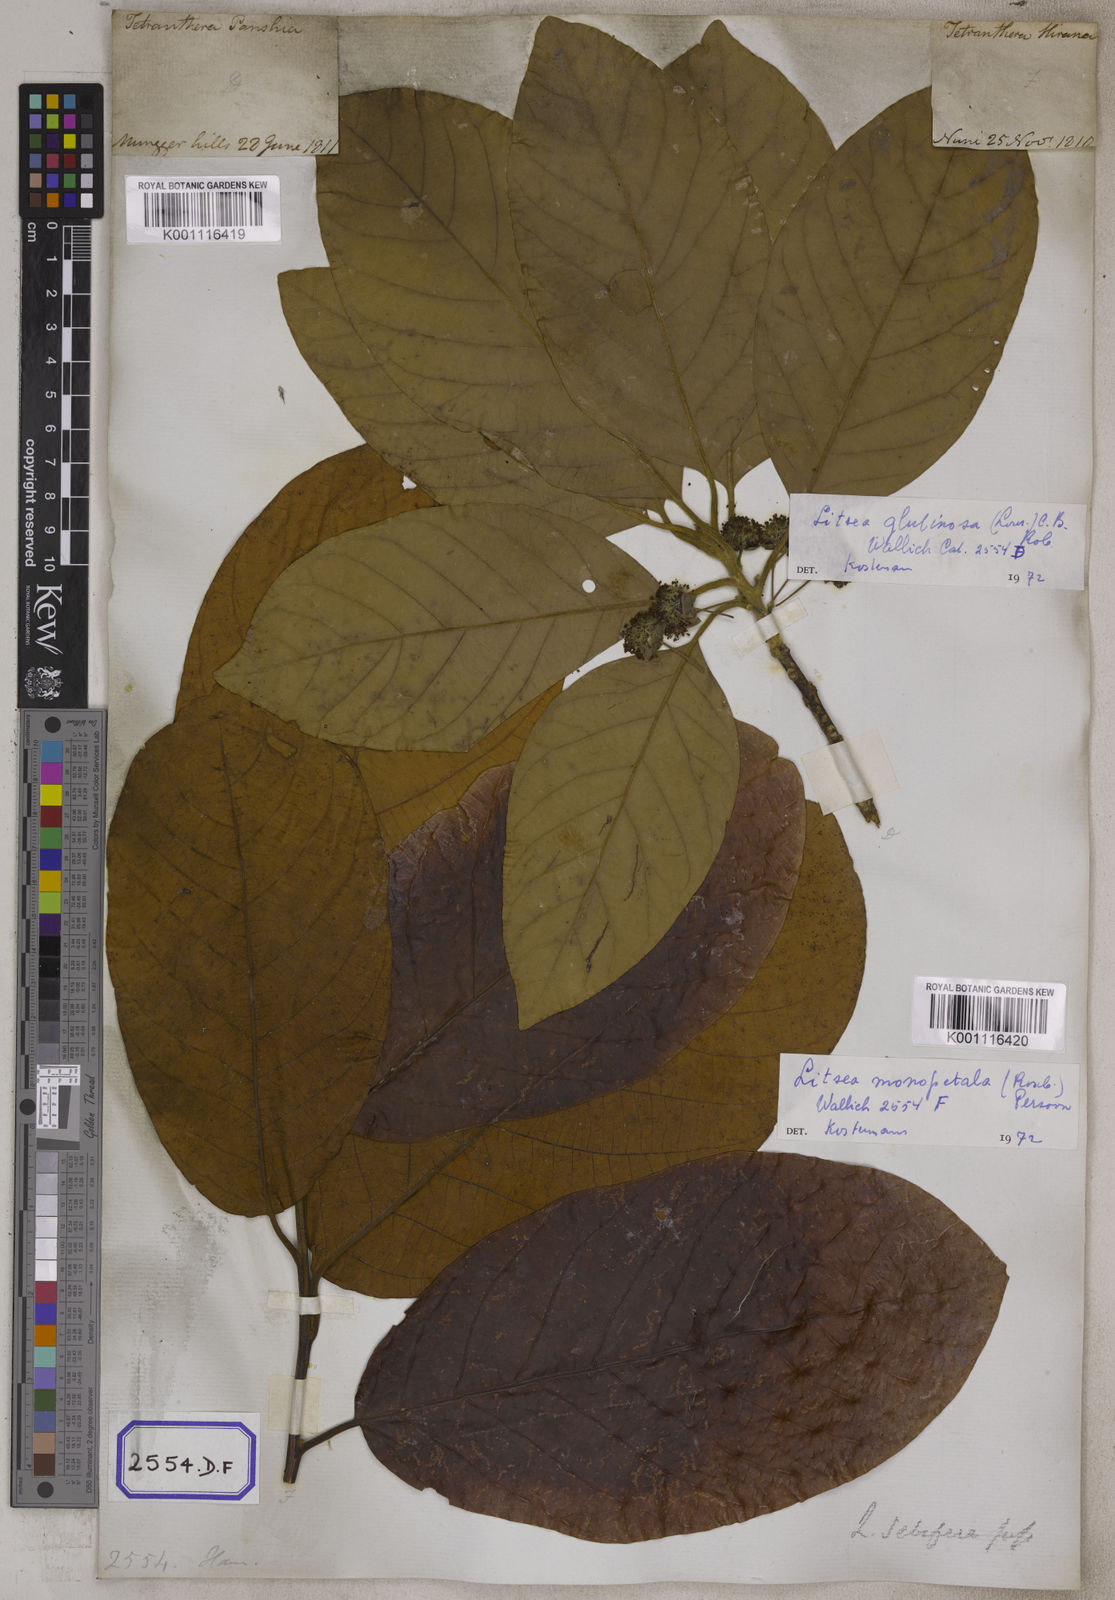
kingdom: Plantae
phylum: Tracheophyta
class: Magnoliopsida
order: Laurales
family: Lauraceae
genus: Litsea
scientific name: Litsea glutinosa
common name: Indian-laurel
